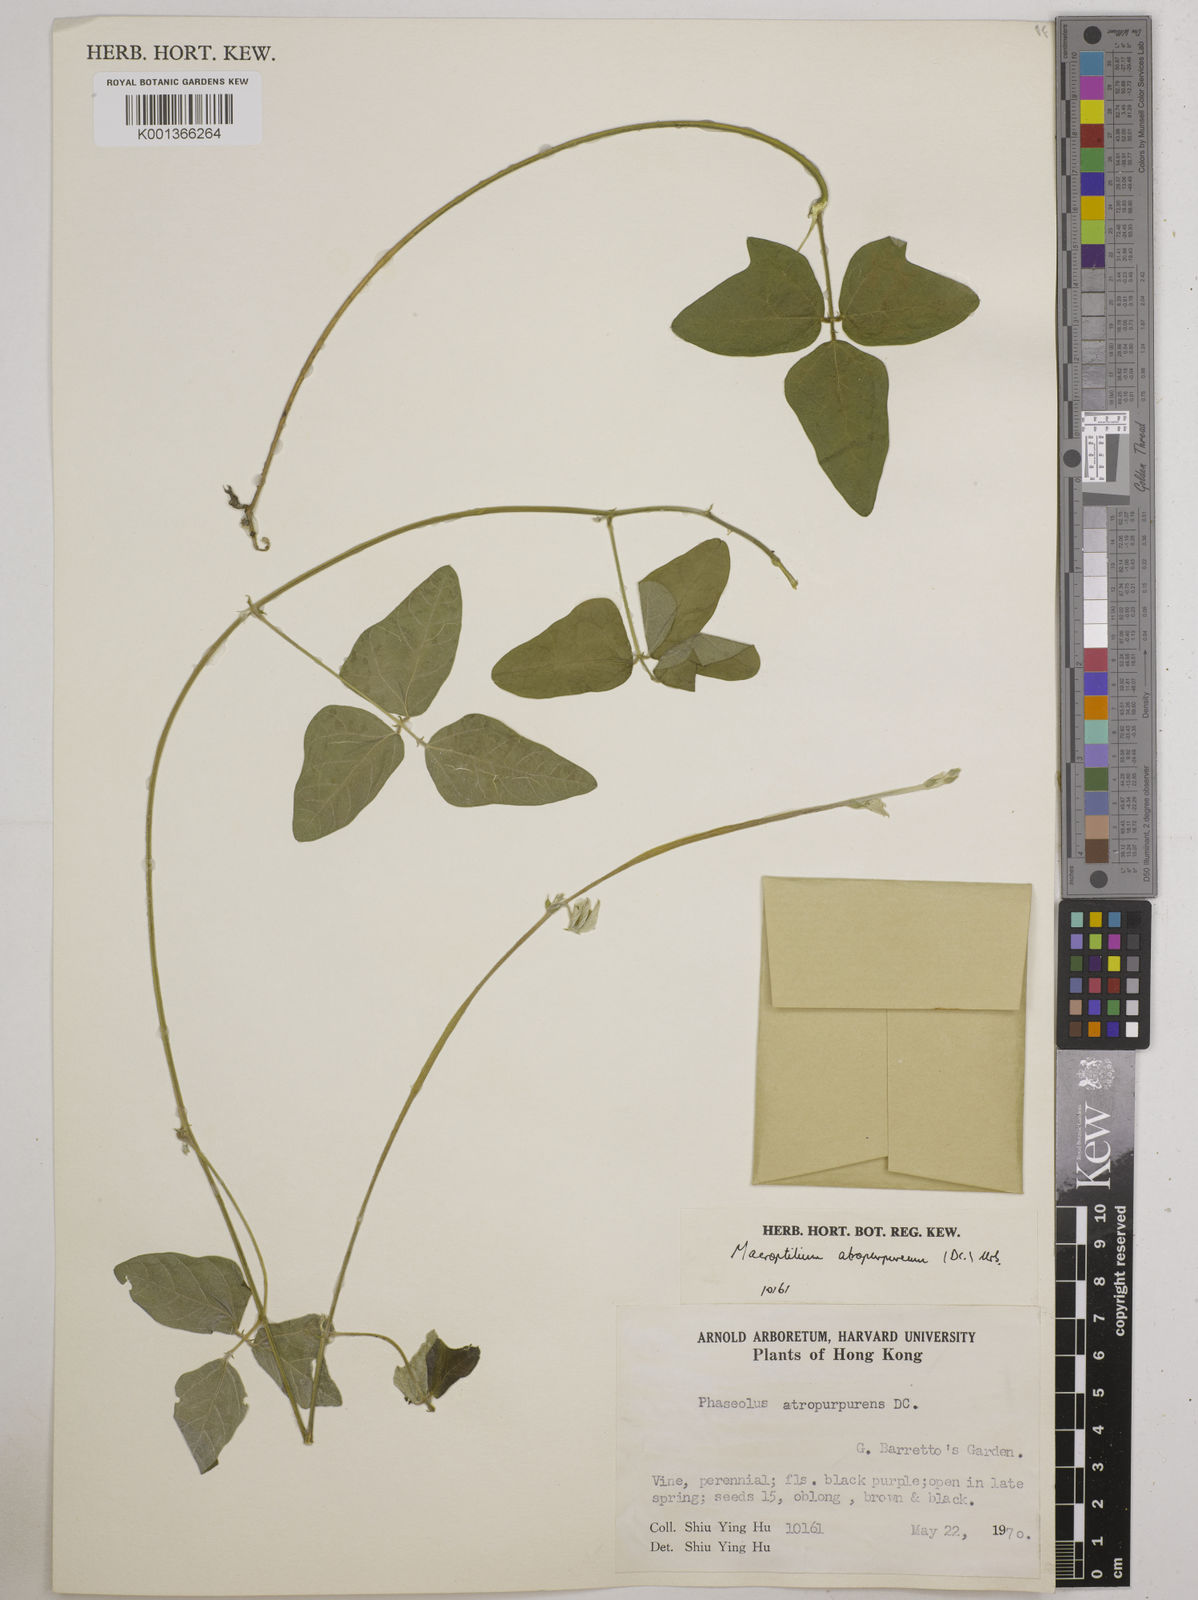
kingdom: Plantae
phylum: Tracheophyta
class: Magnoliopsida
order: Fabales
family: Fabaceae
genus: Macroptilium
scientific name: Macroptilium atropurpureum
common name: Purple bushbean
